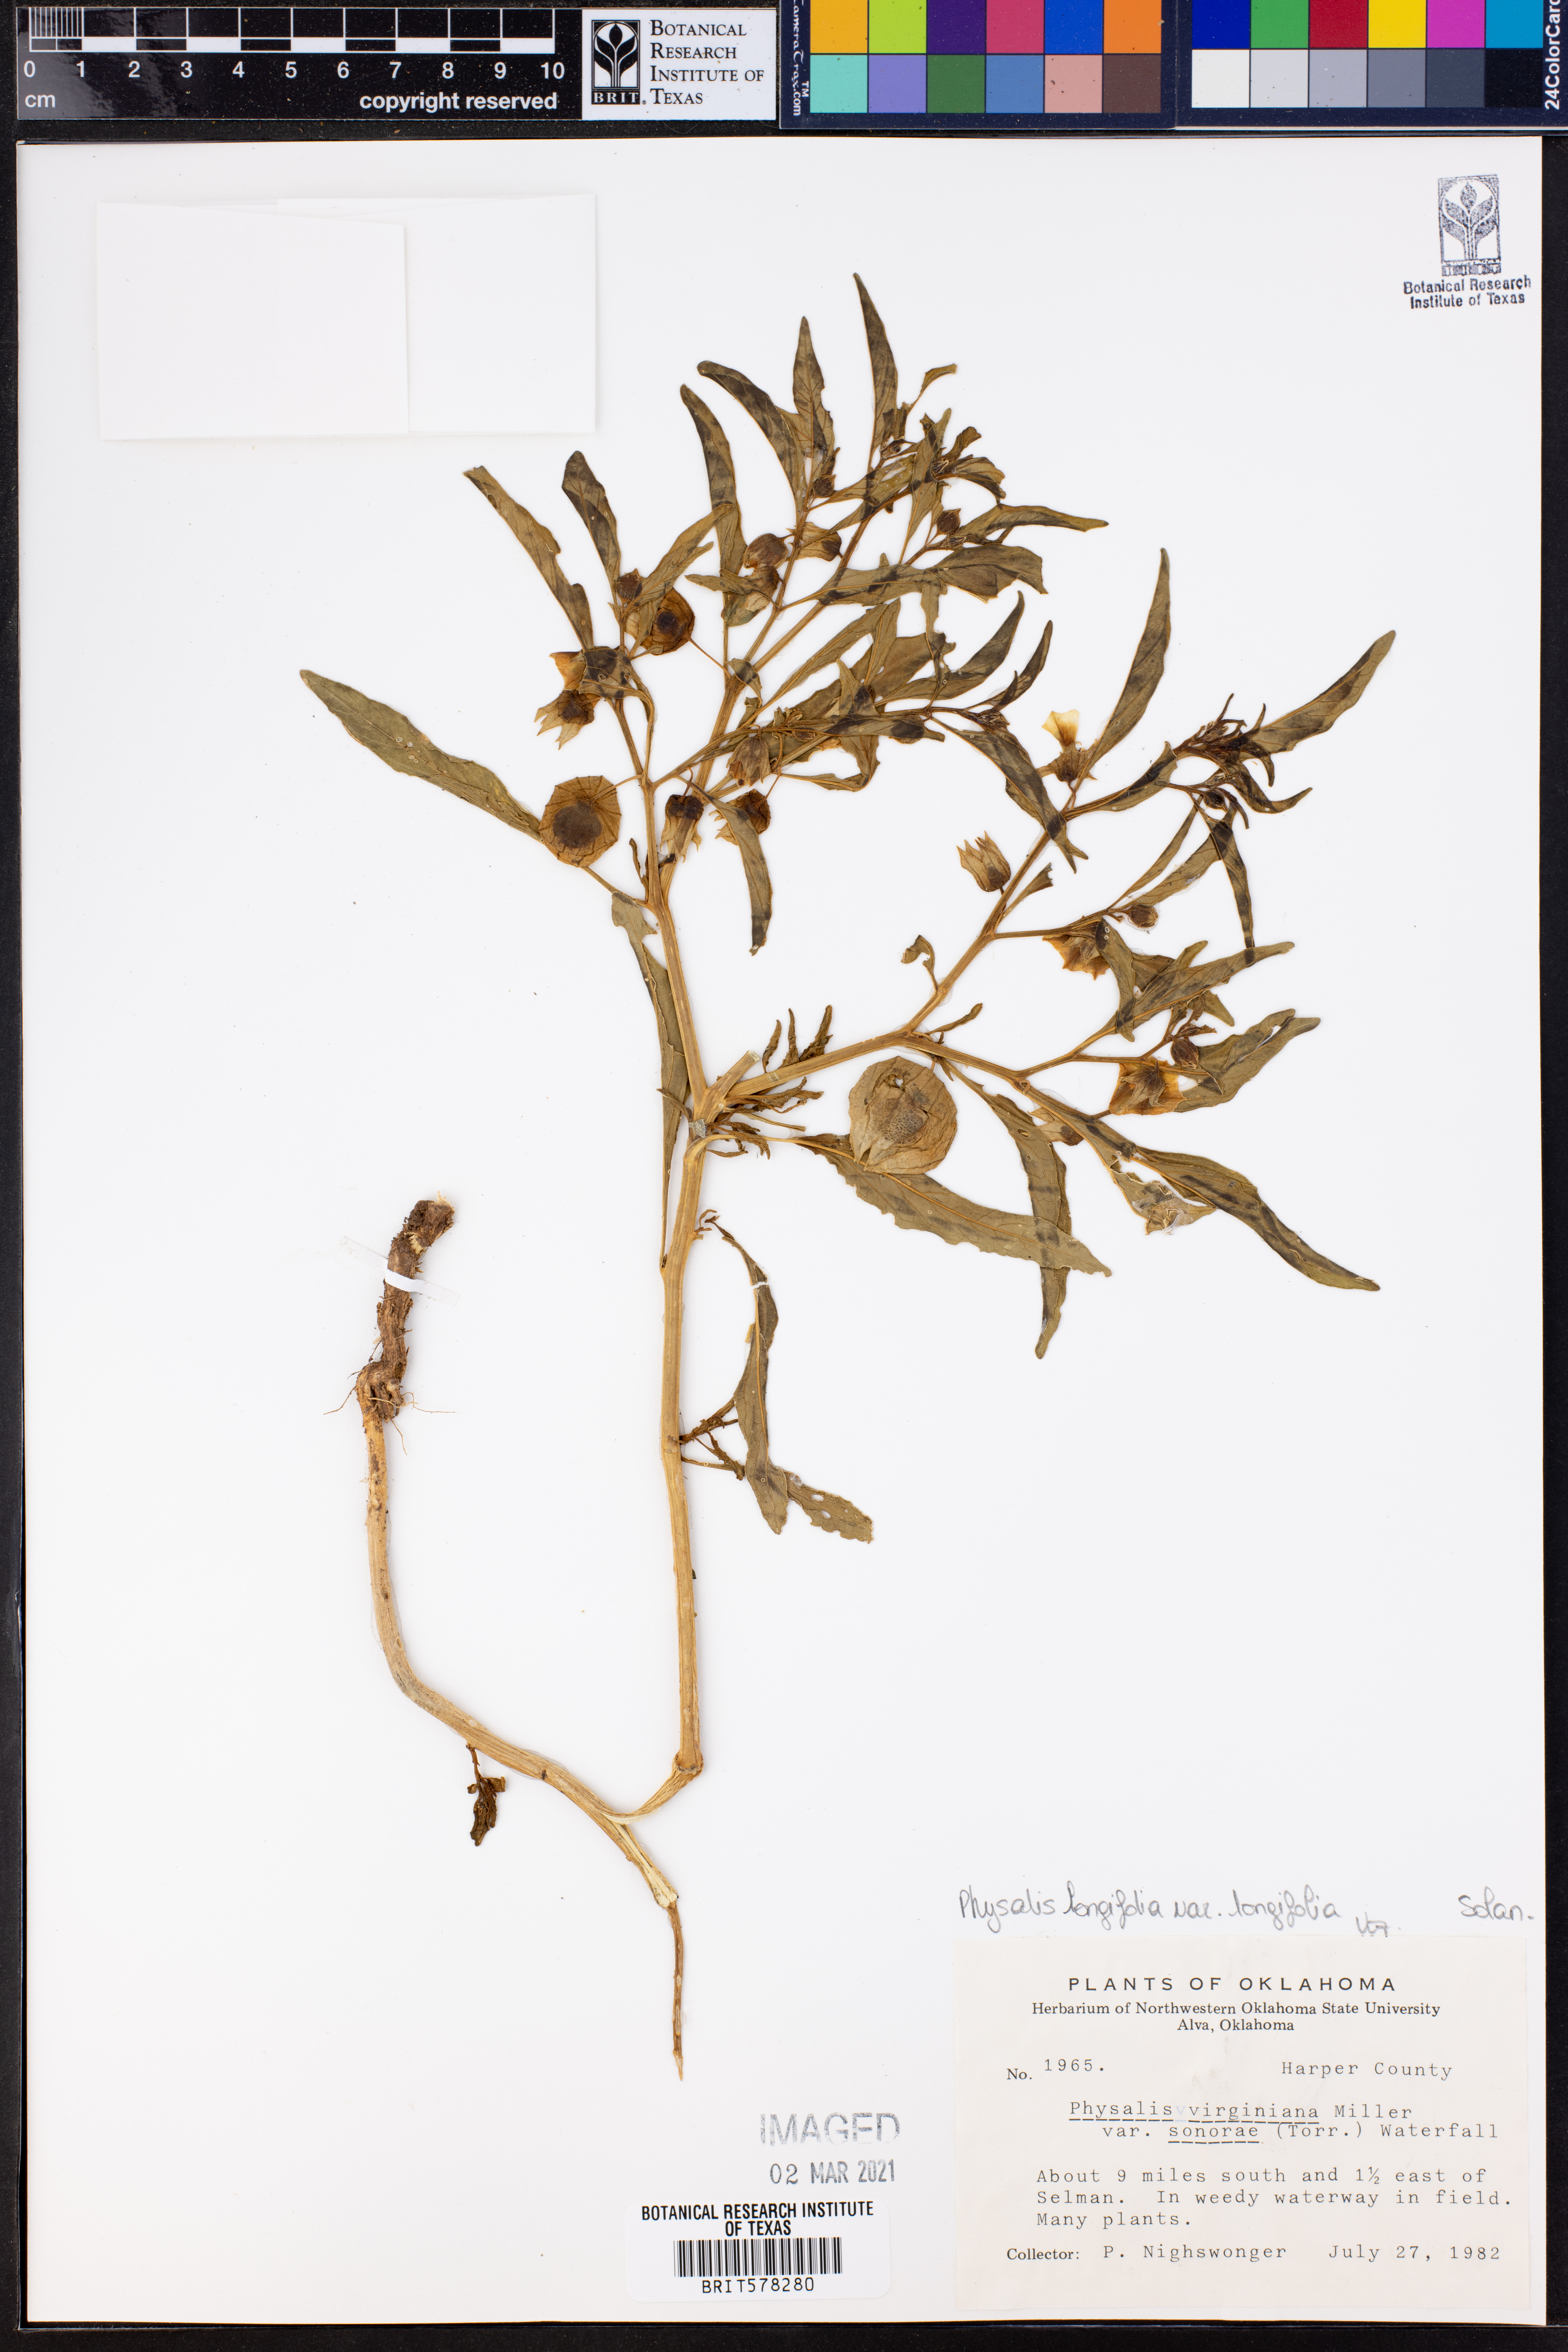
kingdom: Plantae
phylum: Tracheophyta
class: Magnoliopsida
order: Solanales
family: Solanaceae
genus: Physalis
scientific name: Physalis longifolia
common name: Common ground-cherry
